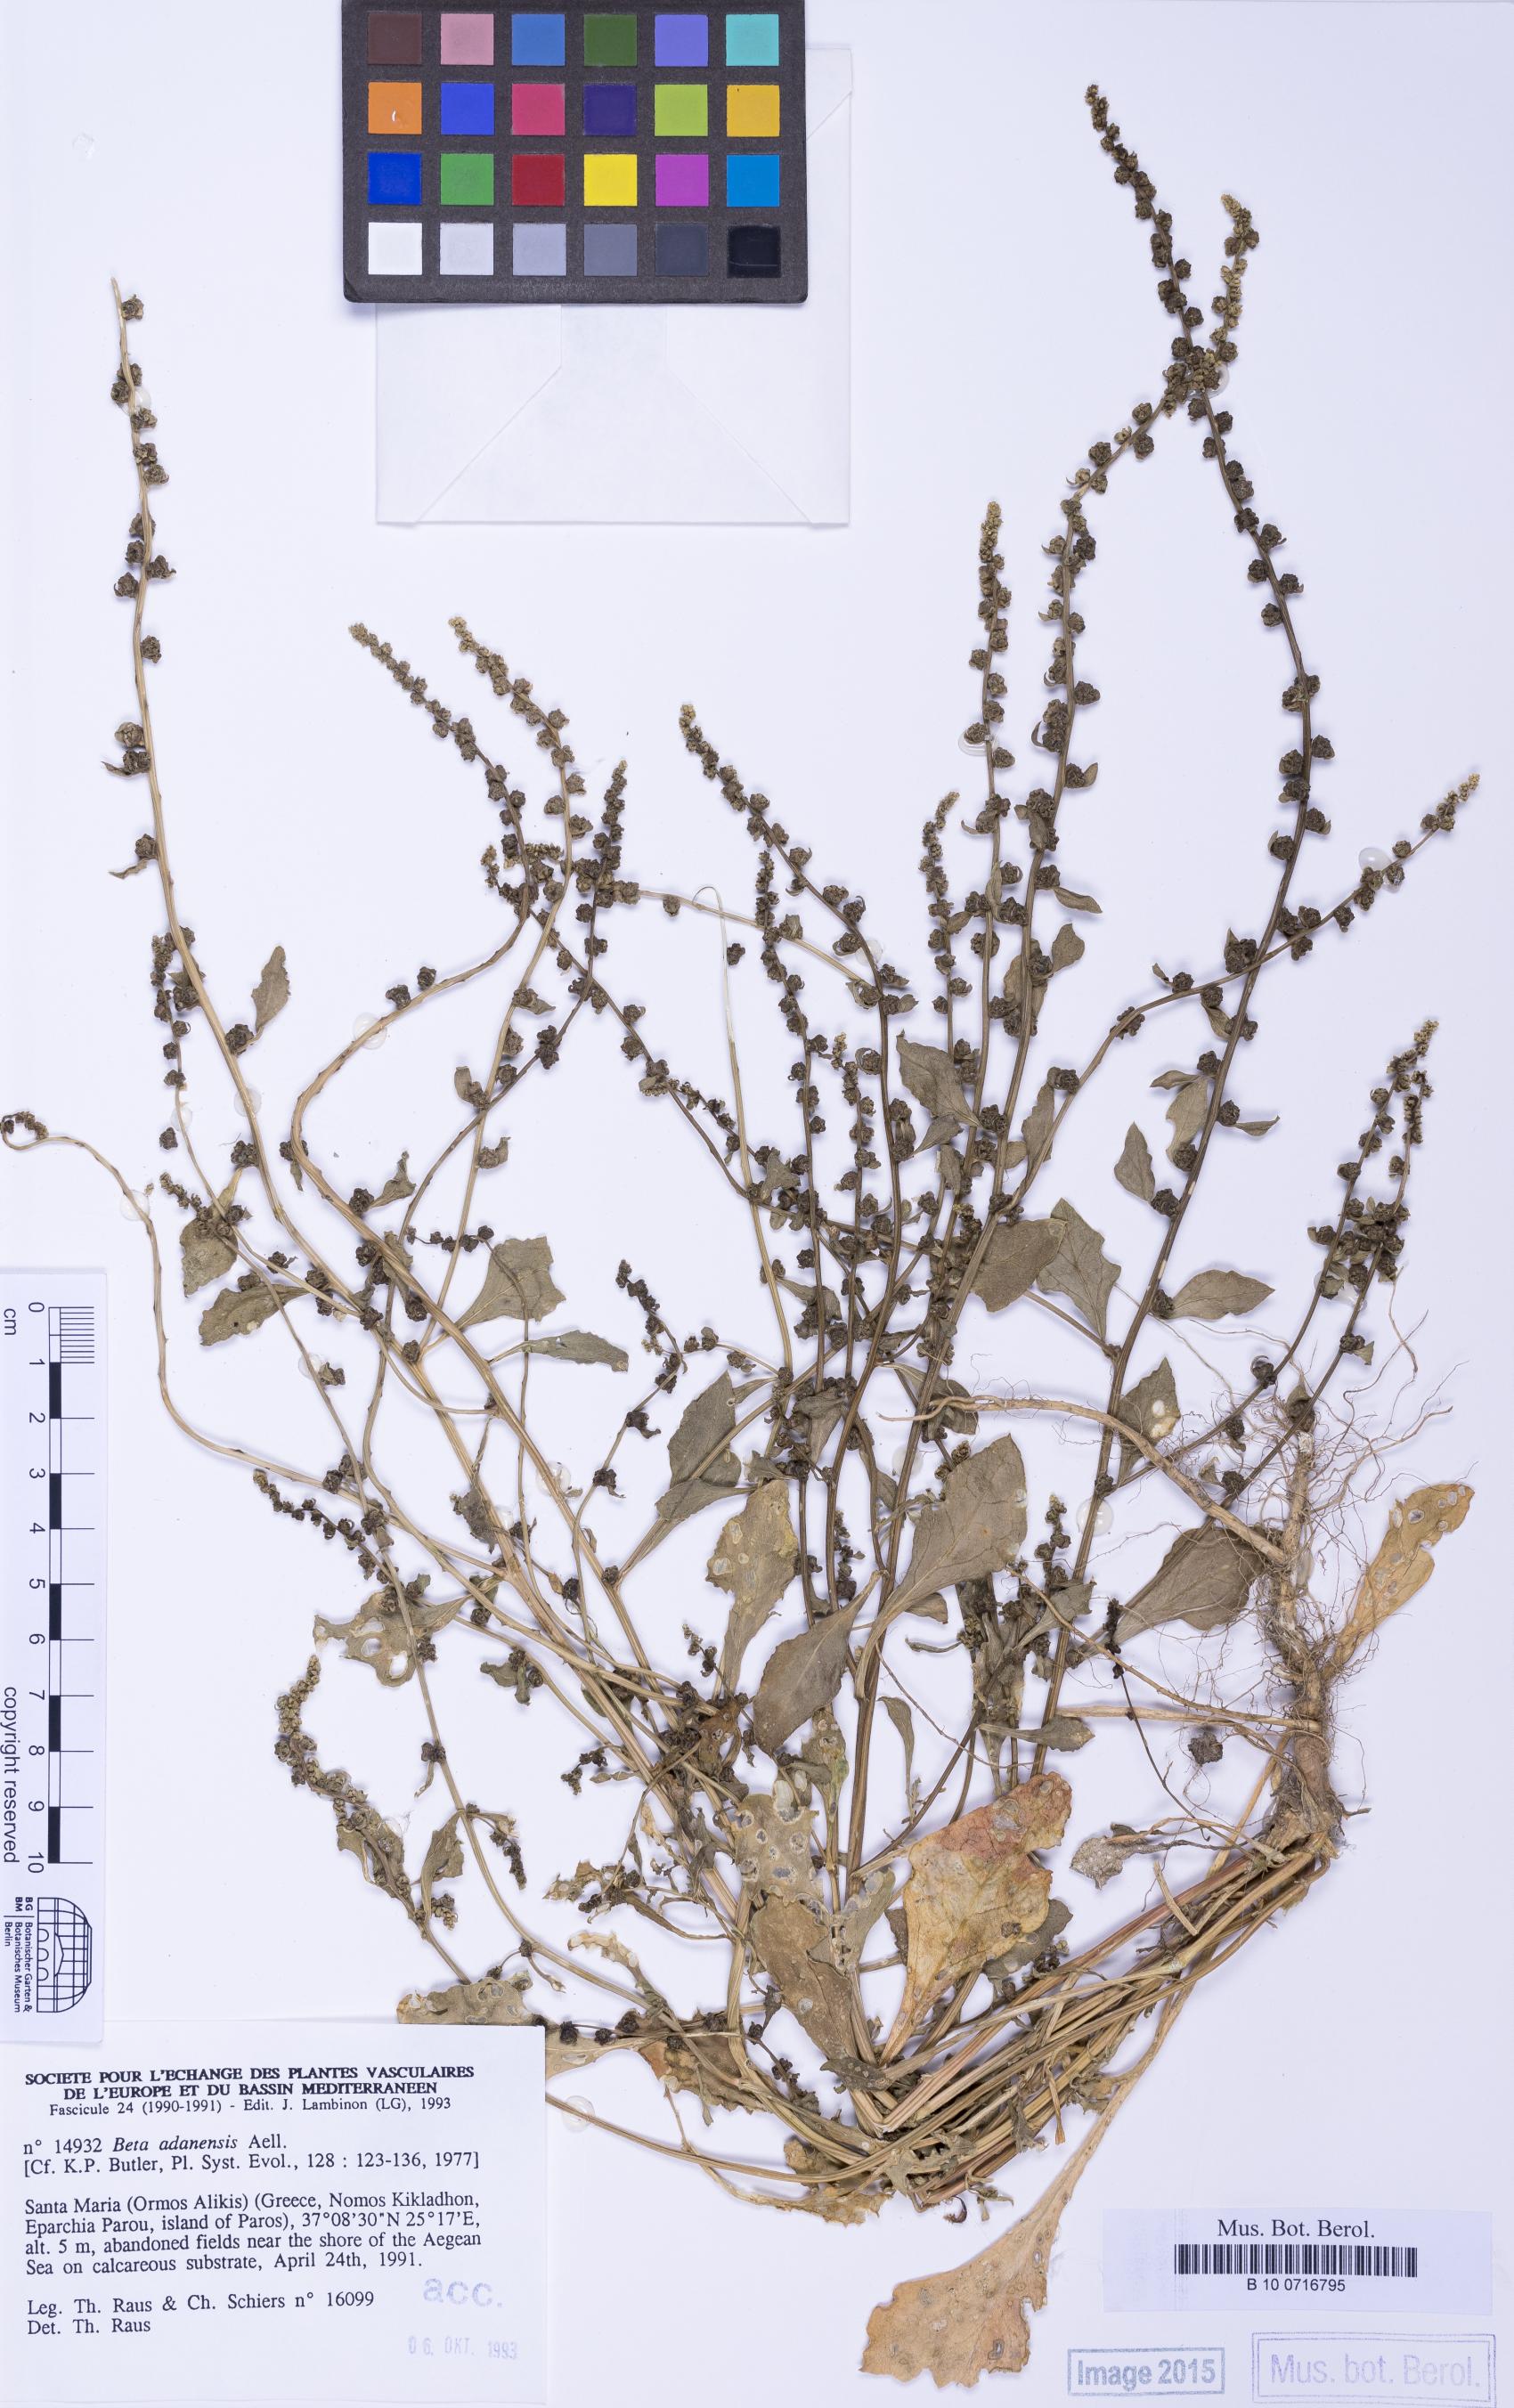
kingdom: Plantae
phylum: Tracheophyta
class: Magnoliopsida
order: Caryophyllales
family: Amaranthaceae
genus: Beta
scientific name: Beta adanensis
